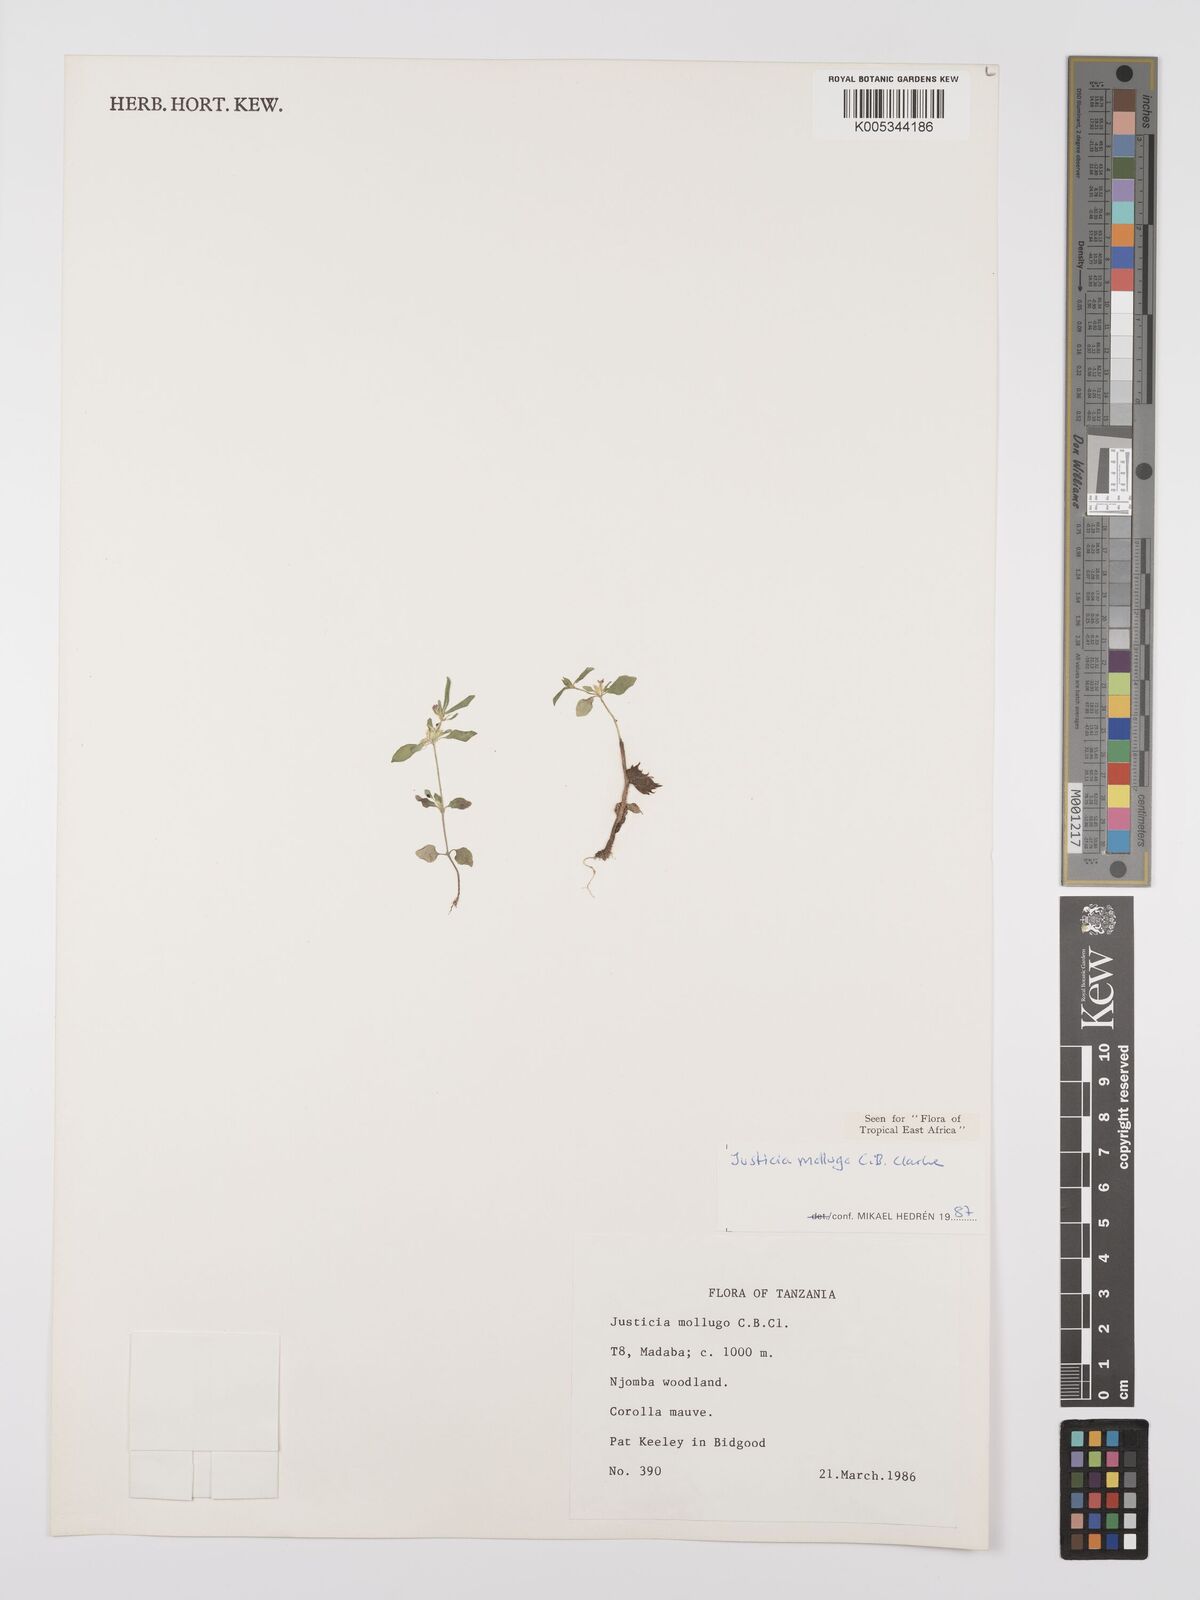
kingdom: Plantae
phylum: Tracheophyta
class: Magnoliopsida
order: Lamiales
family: Acanthaceae
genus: Justicia
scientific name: Justicia mollugo
